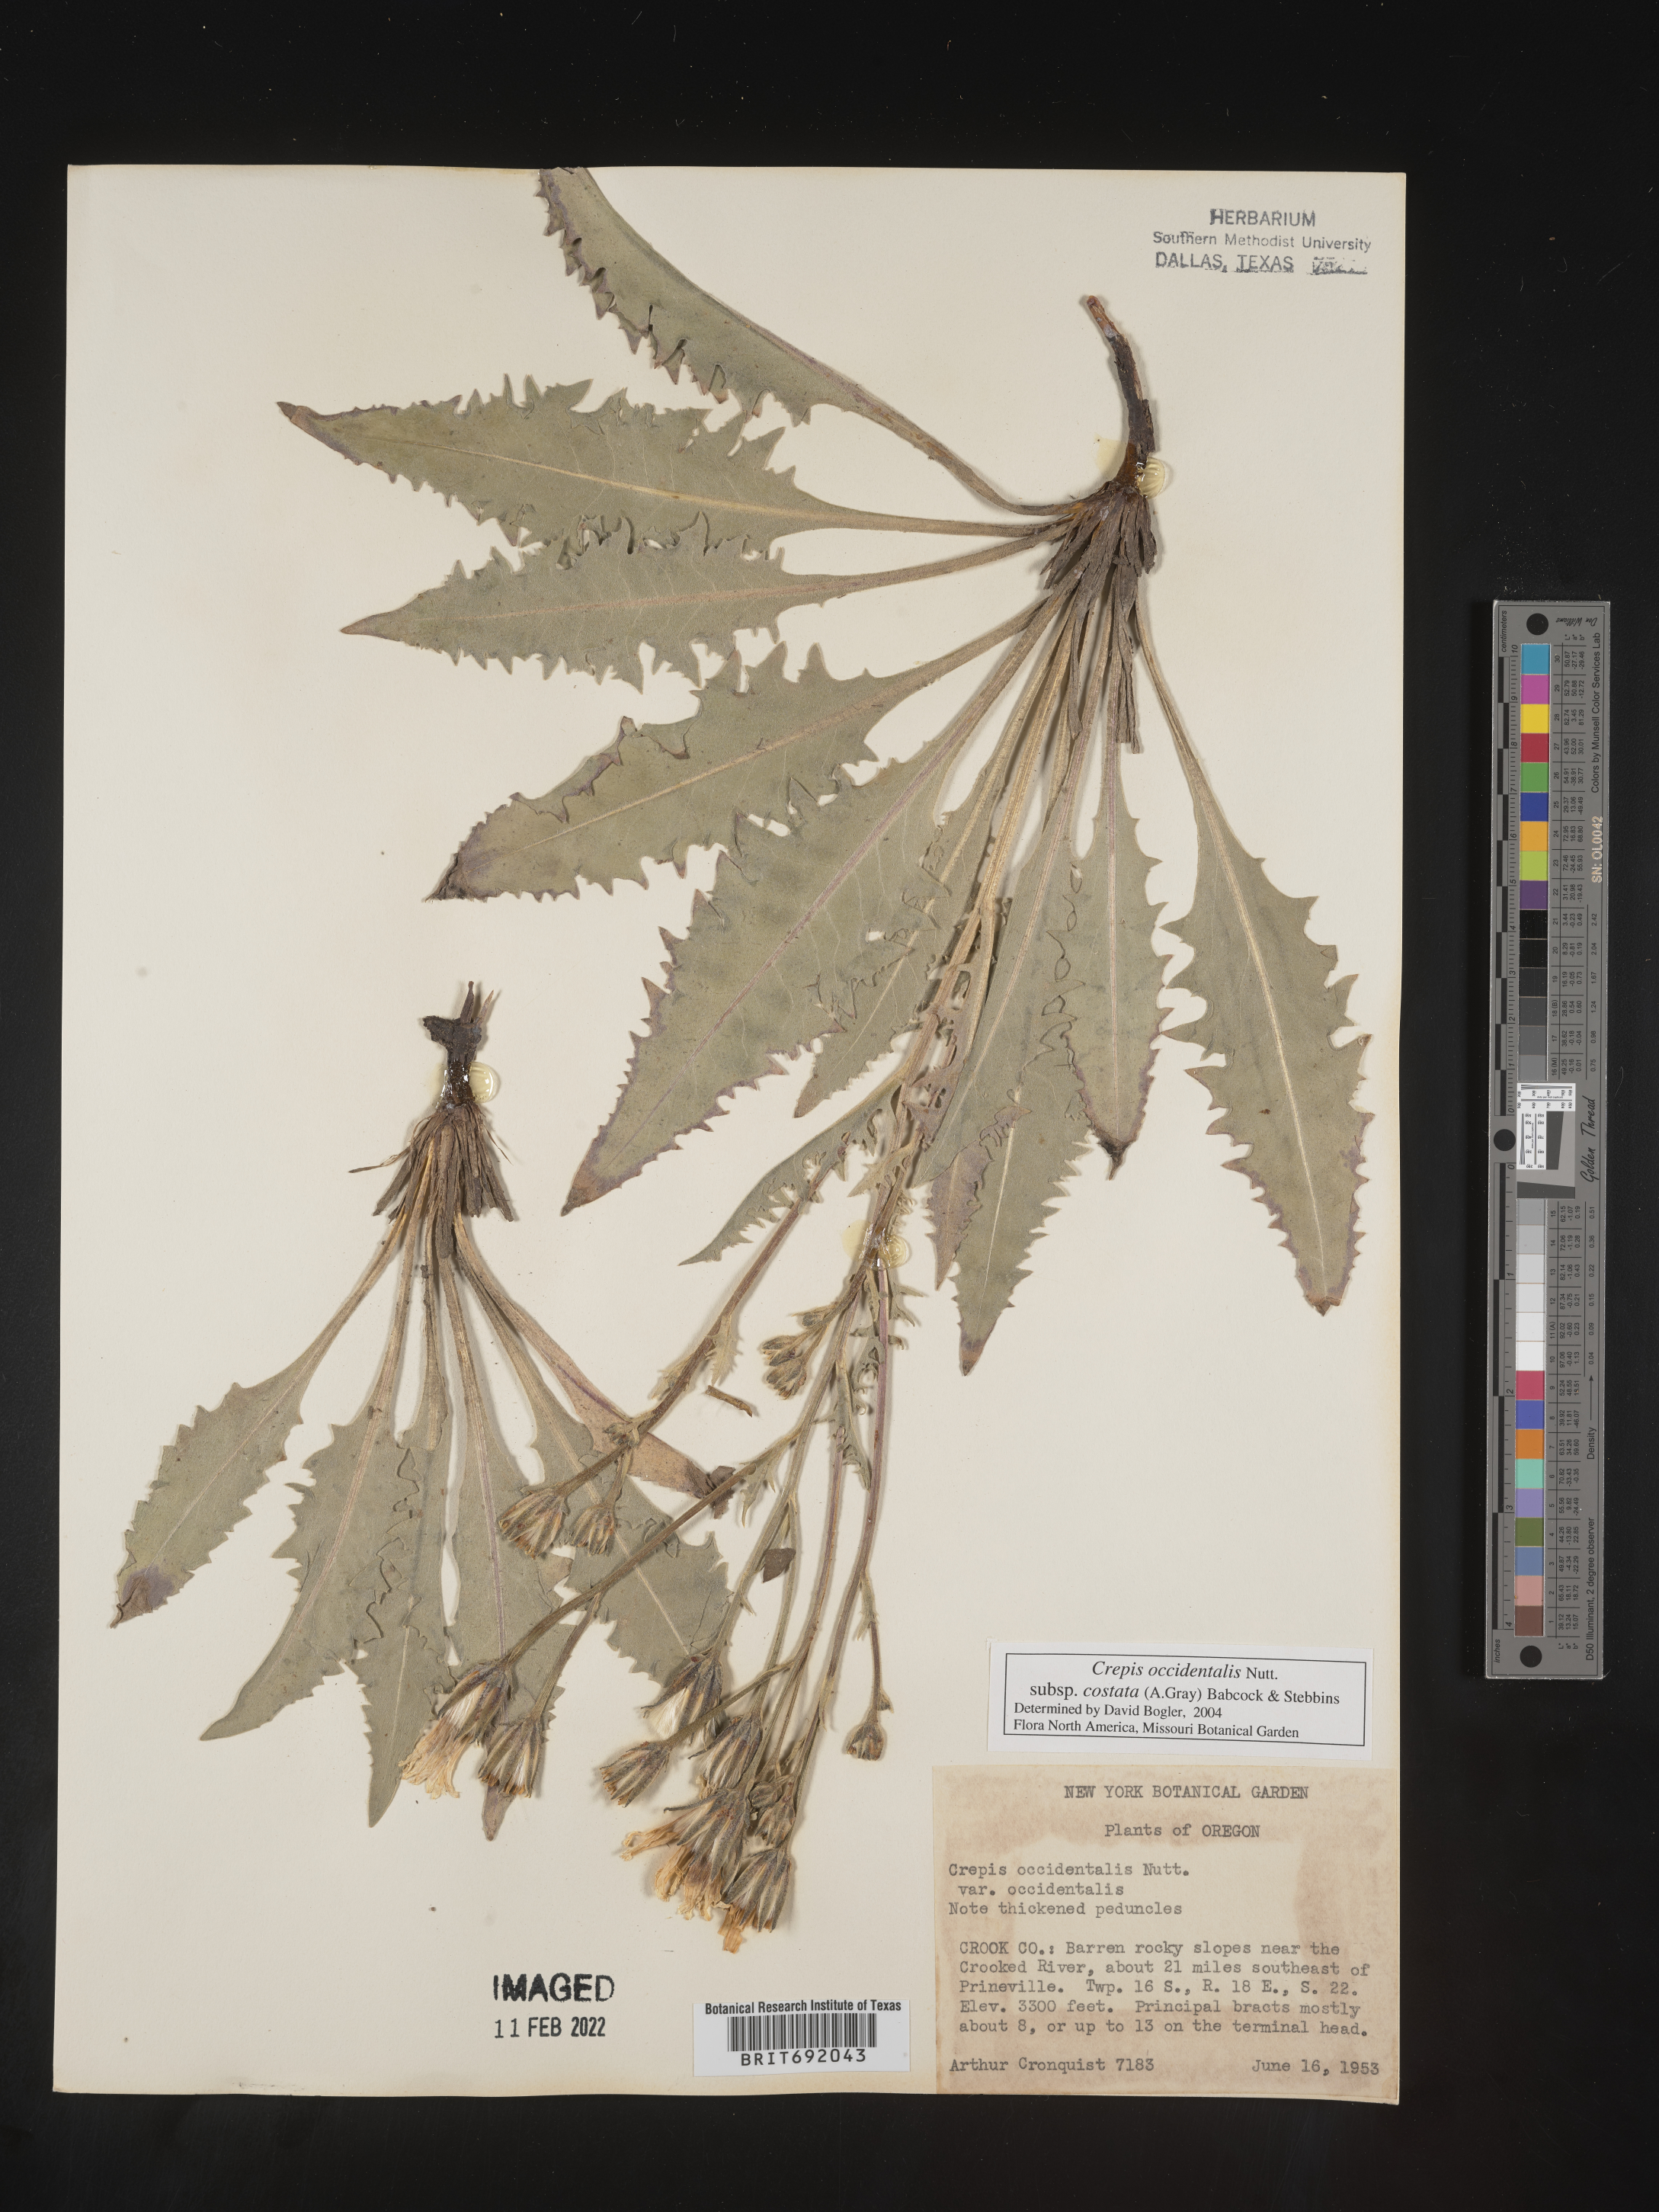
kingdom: Plantae
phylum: Tracheophyta
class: Magnoliopsida
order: Asterales
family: Asteraceae
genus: Crepis
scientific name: Crepis occidentalis
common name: Gray hawk's-beard
